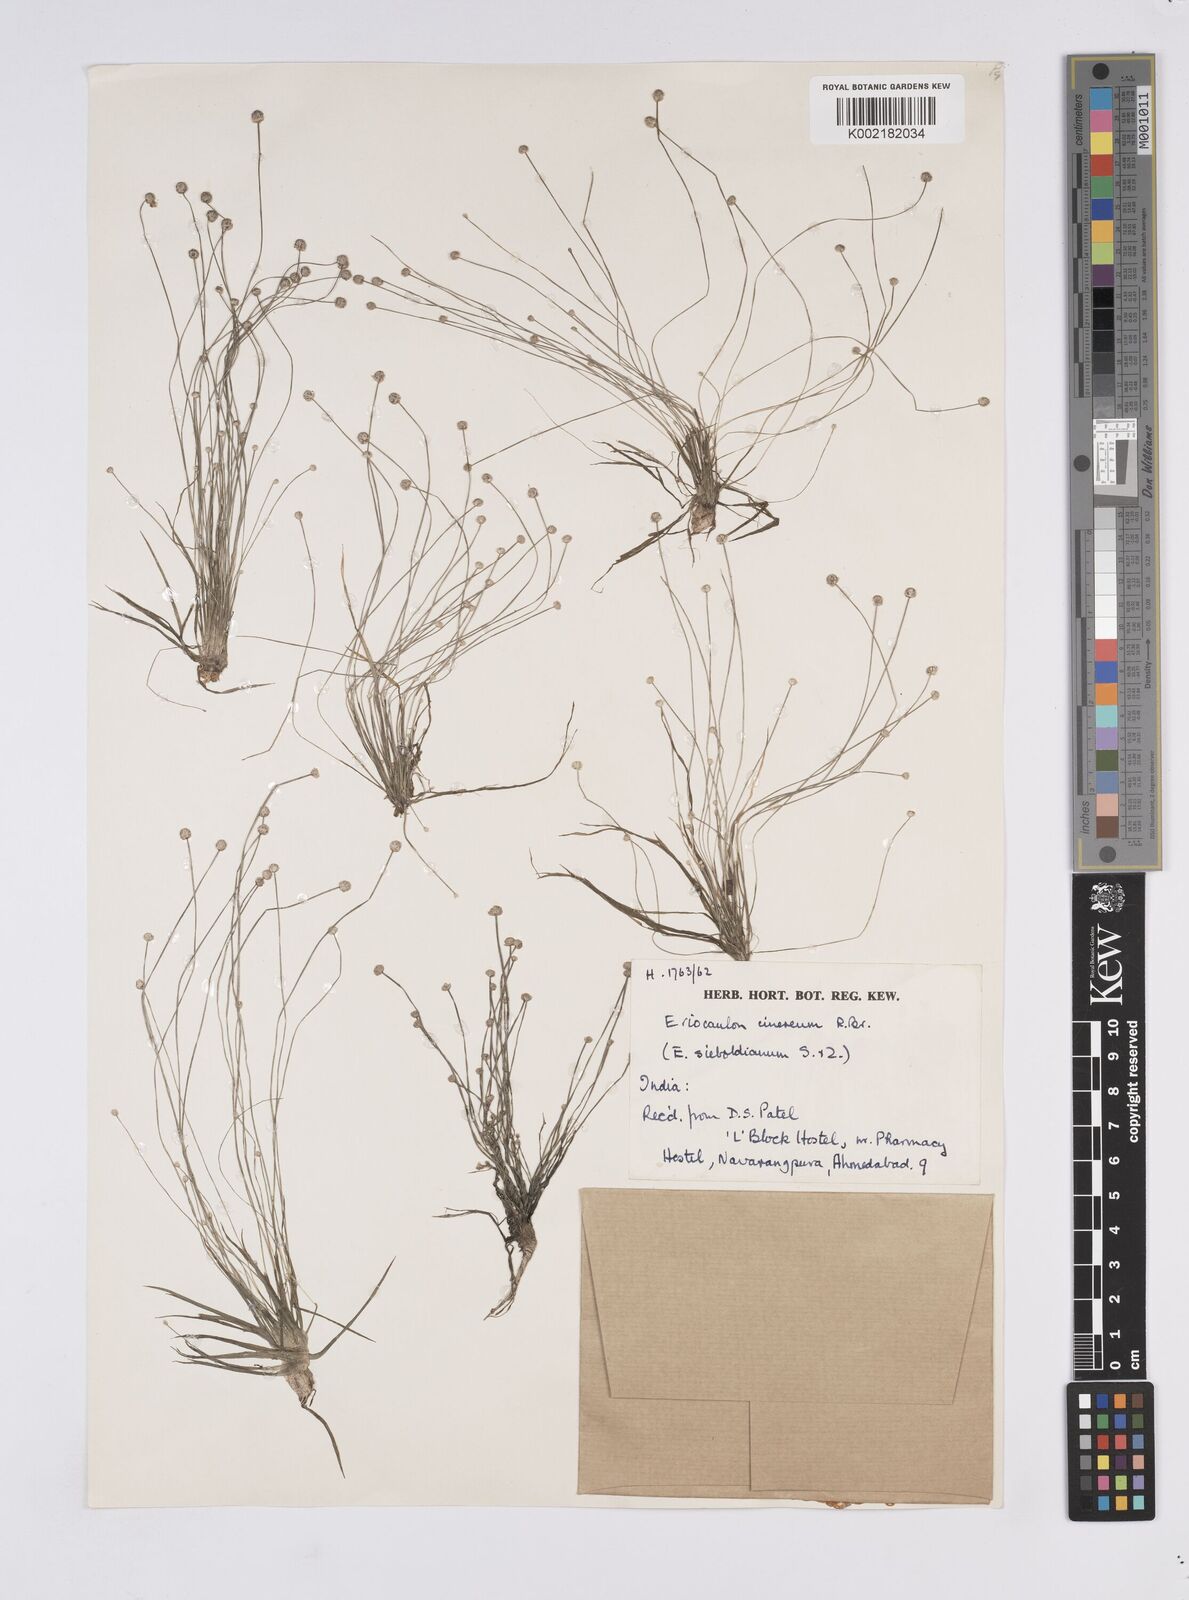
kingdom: Plantae
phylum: Tracheophyta
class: Liliopsida
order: Poales
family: Eriocaulaceae
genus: Eriocaulon
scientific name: Eriocaulon cinereum
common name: Ashy pipewort
